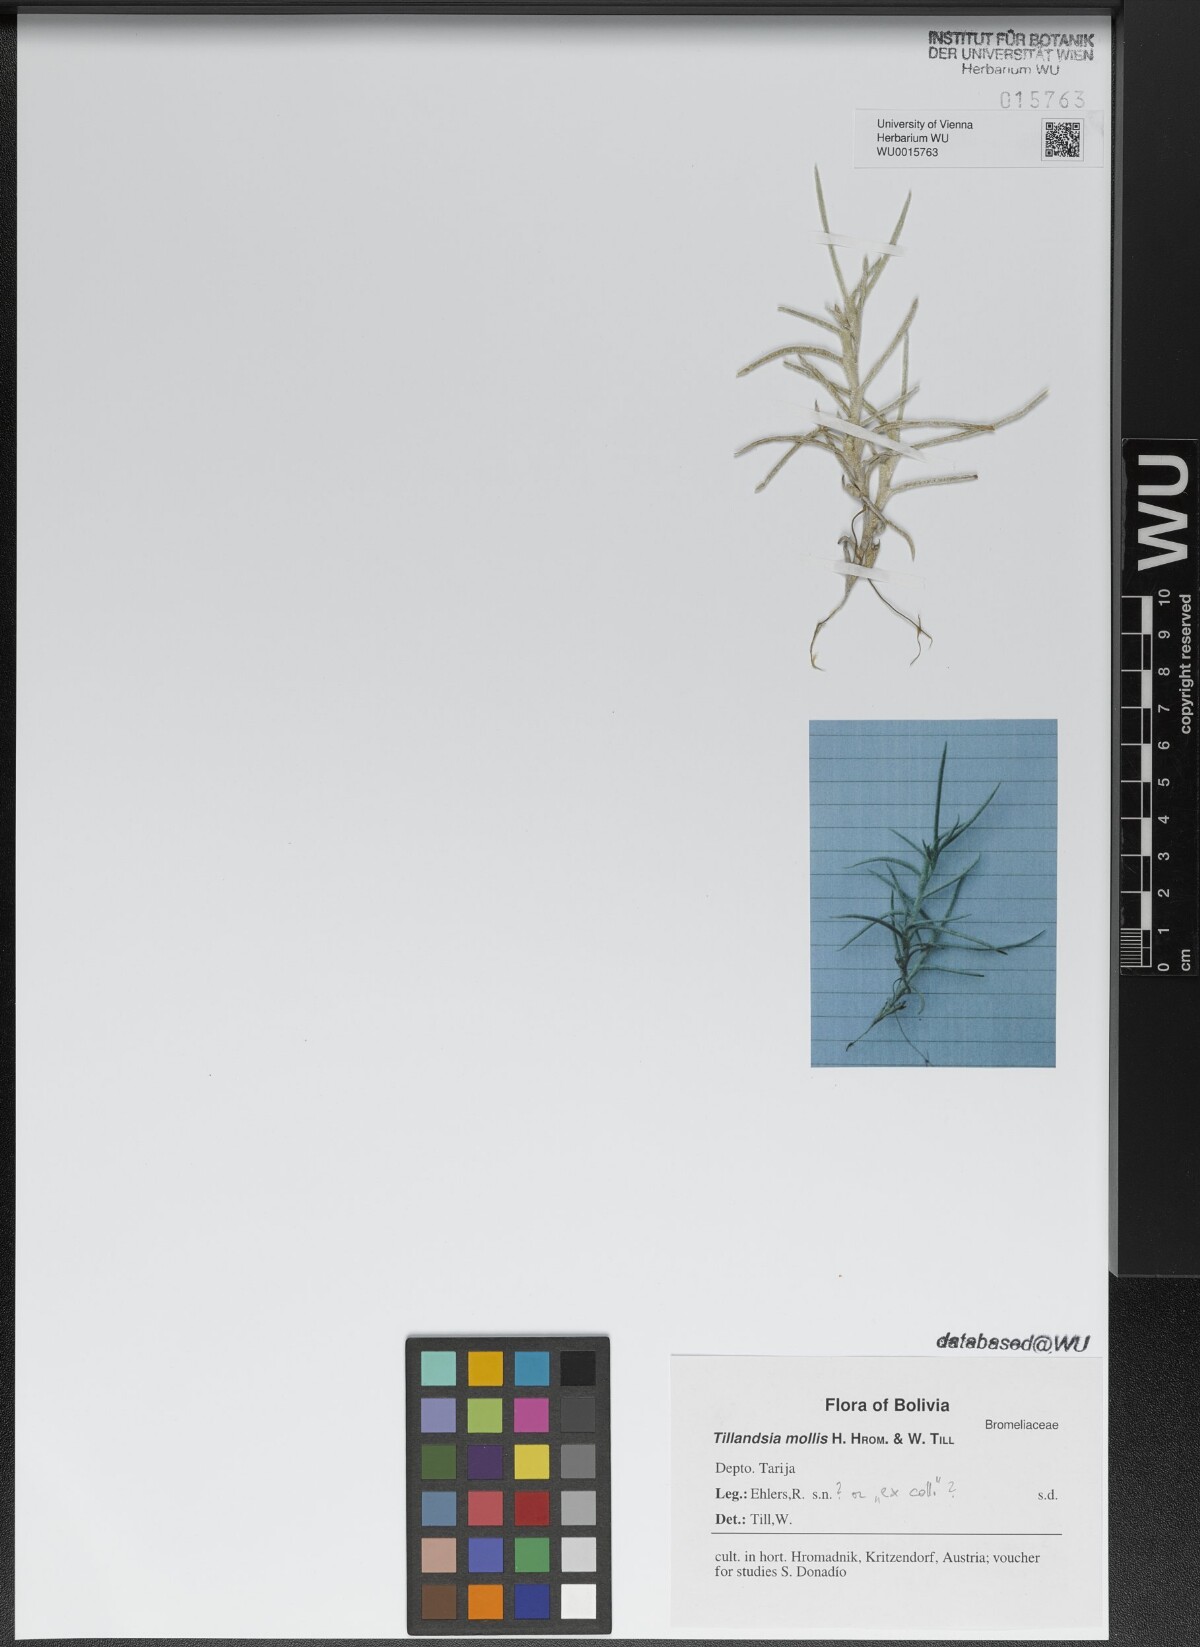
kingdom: Plantae
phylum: Tracheophyta
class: Liliopsida
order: Poales
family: Bromeliaceae
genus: Tillandsia
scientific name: Tillandsia mollis
